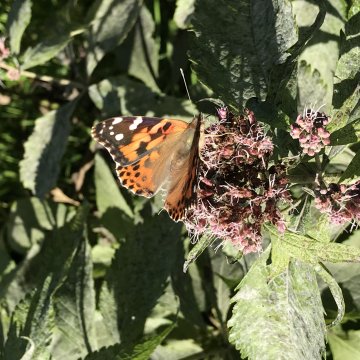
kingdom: Animalia
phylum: Arthropoda
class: Insecta
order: Lepidoptera
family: Nymphalidae
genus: Vanessa
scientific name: Vanessa cardui
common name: Painted Lady
